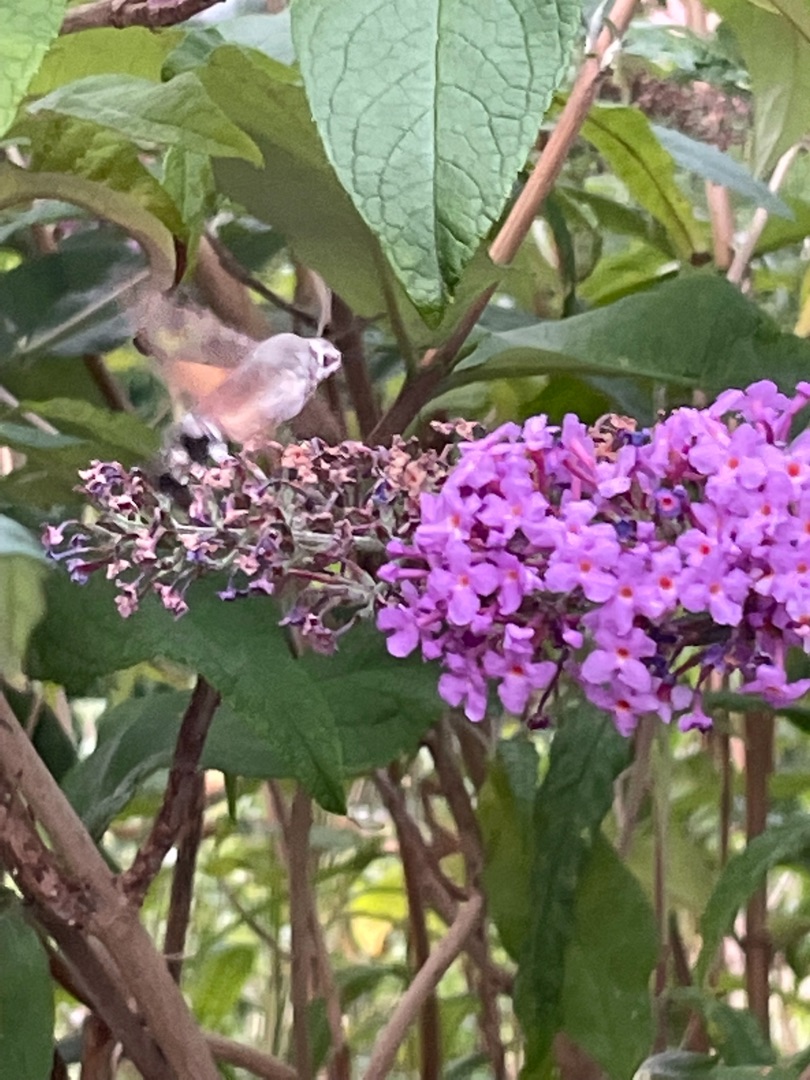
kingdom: Animalia
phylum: Arthropoda
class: Insecta
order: Lepidoptera
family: Sphingidae
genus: Macroglossum
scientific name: Macroglossum stellatarum
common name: Duehale
